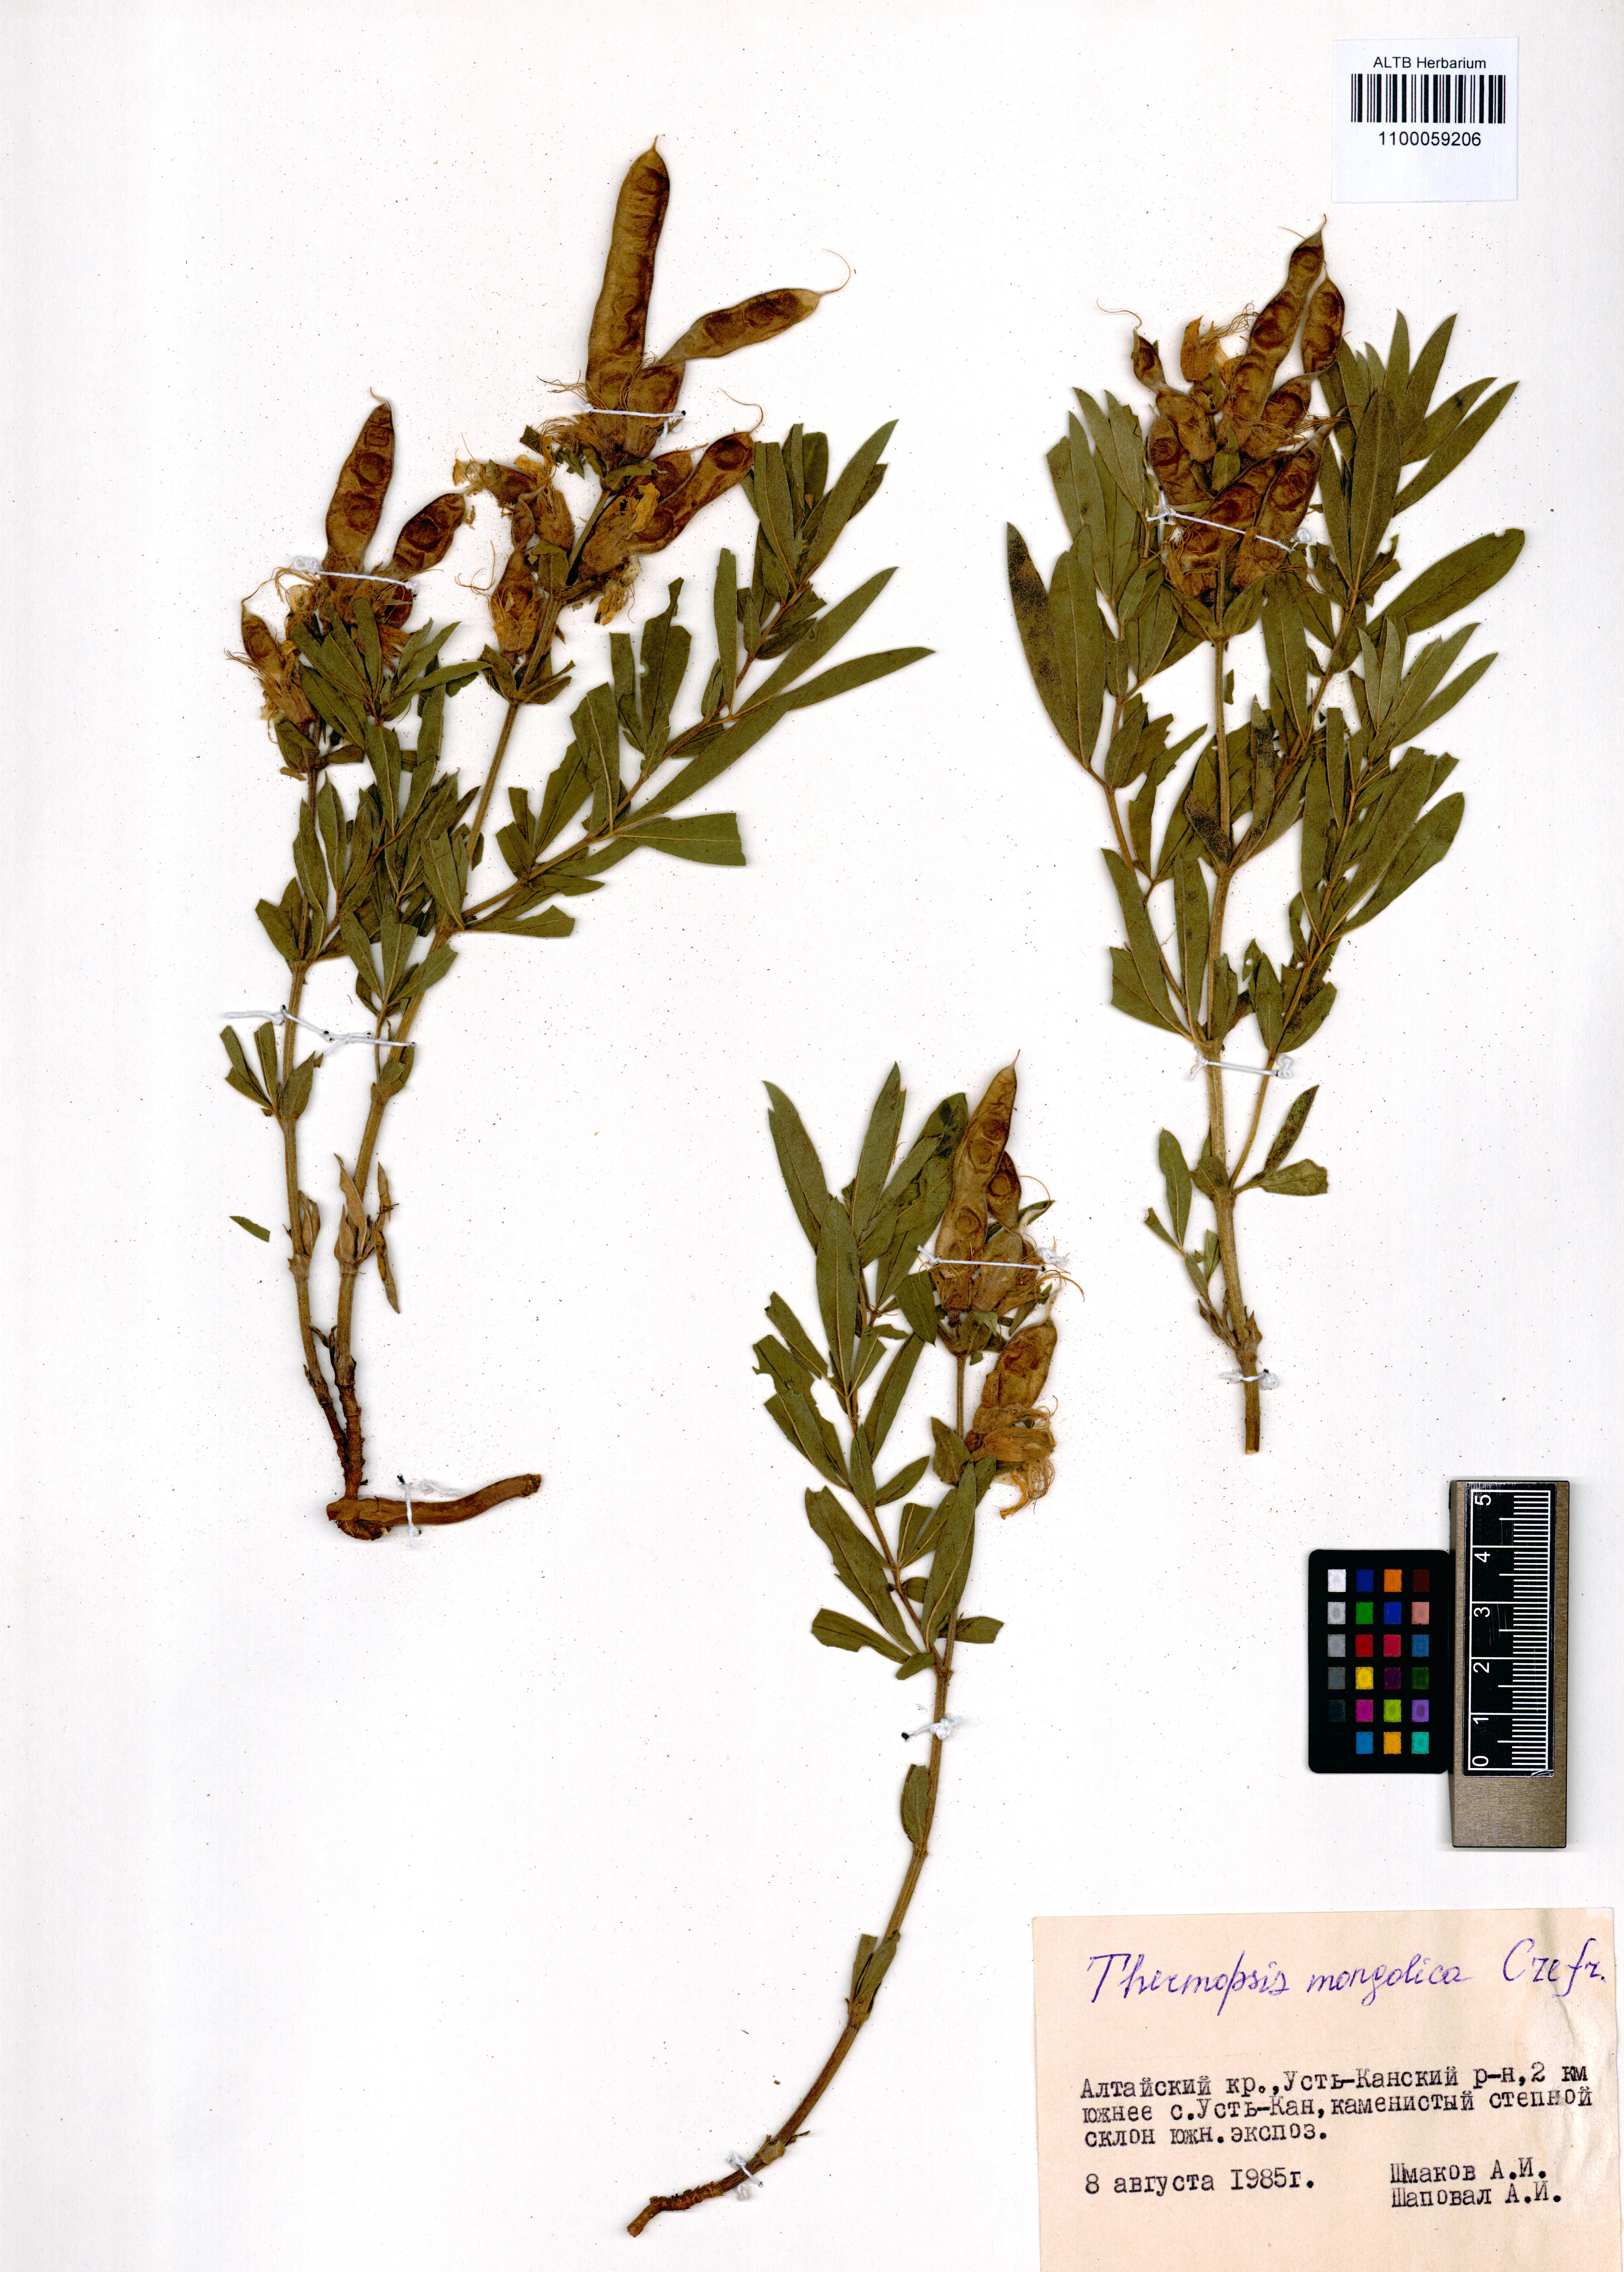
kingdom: Plantae
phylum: Tracheophyta
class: Magnoliopsida
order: Fabales
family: Fabaceae
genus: Thermopsis
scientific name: Thermopsis mongolica
